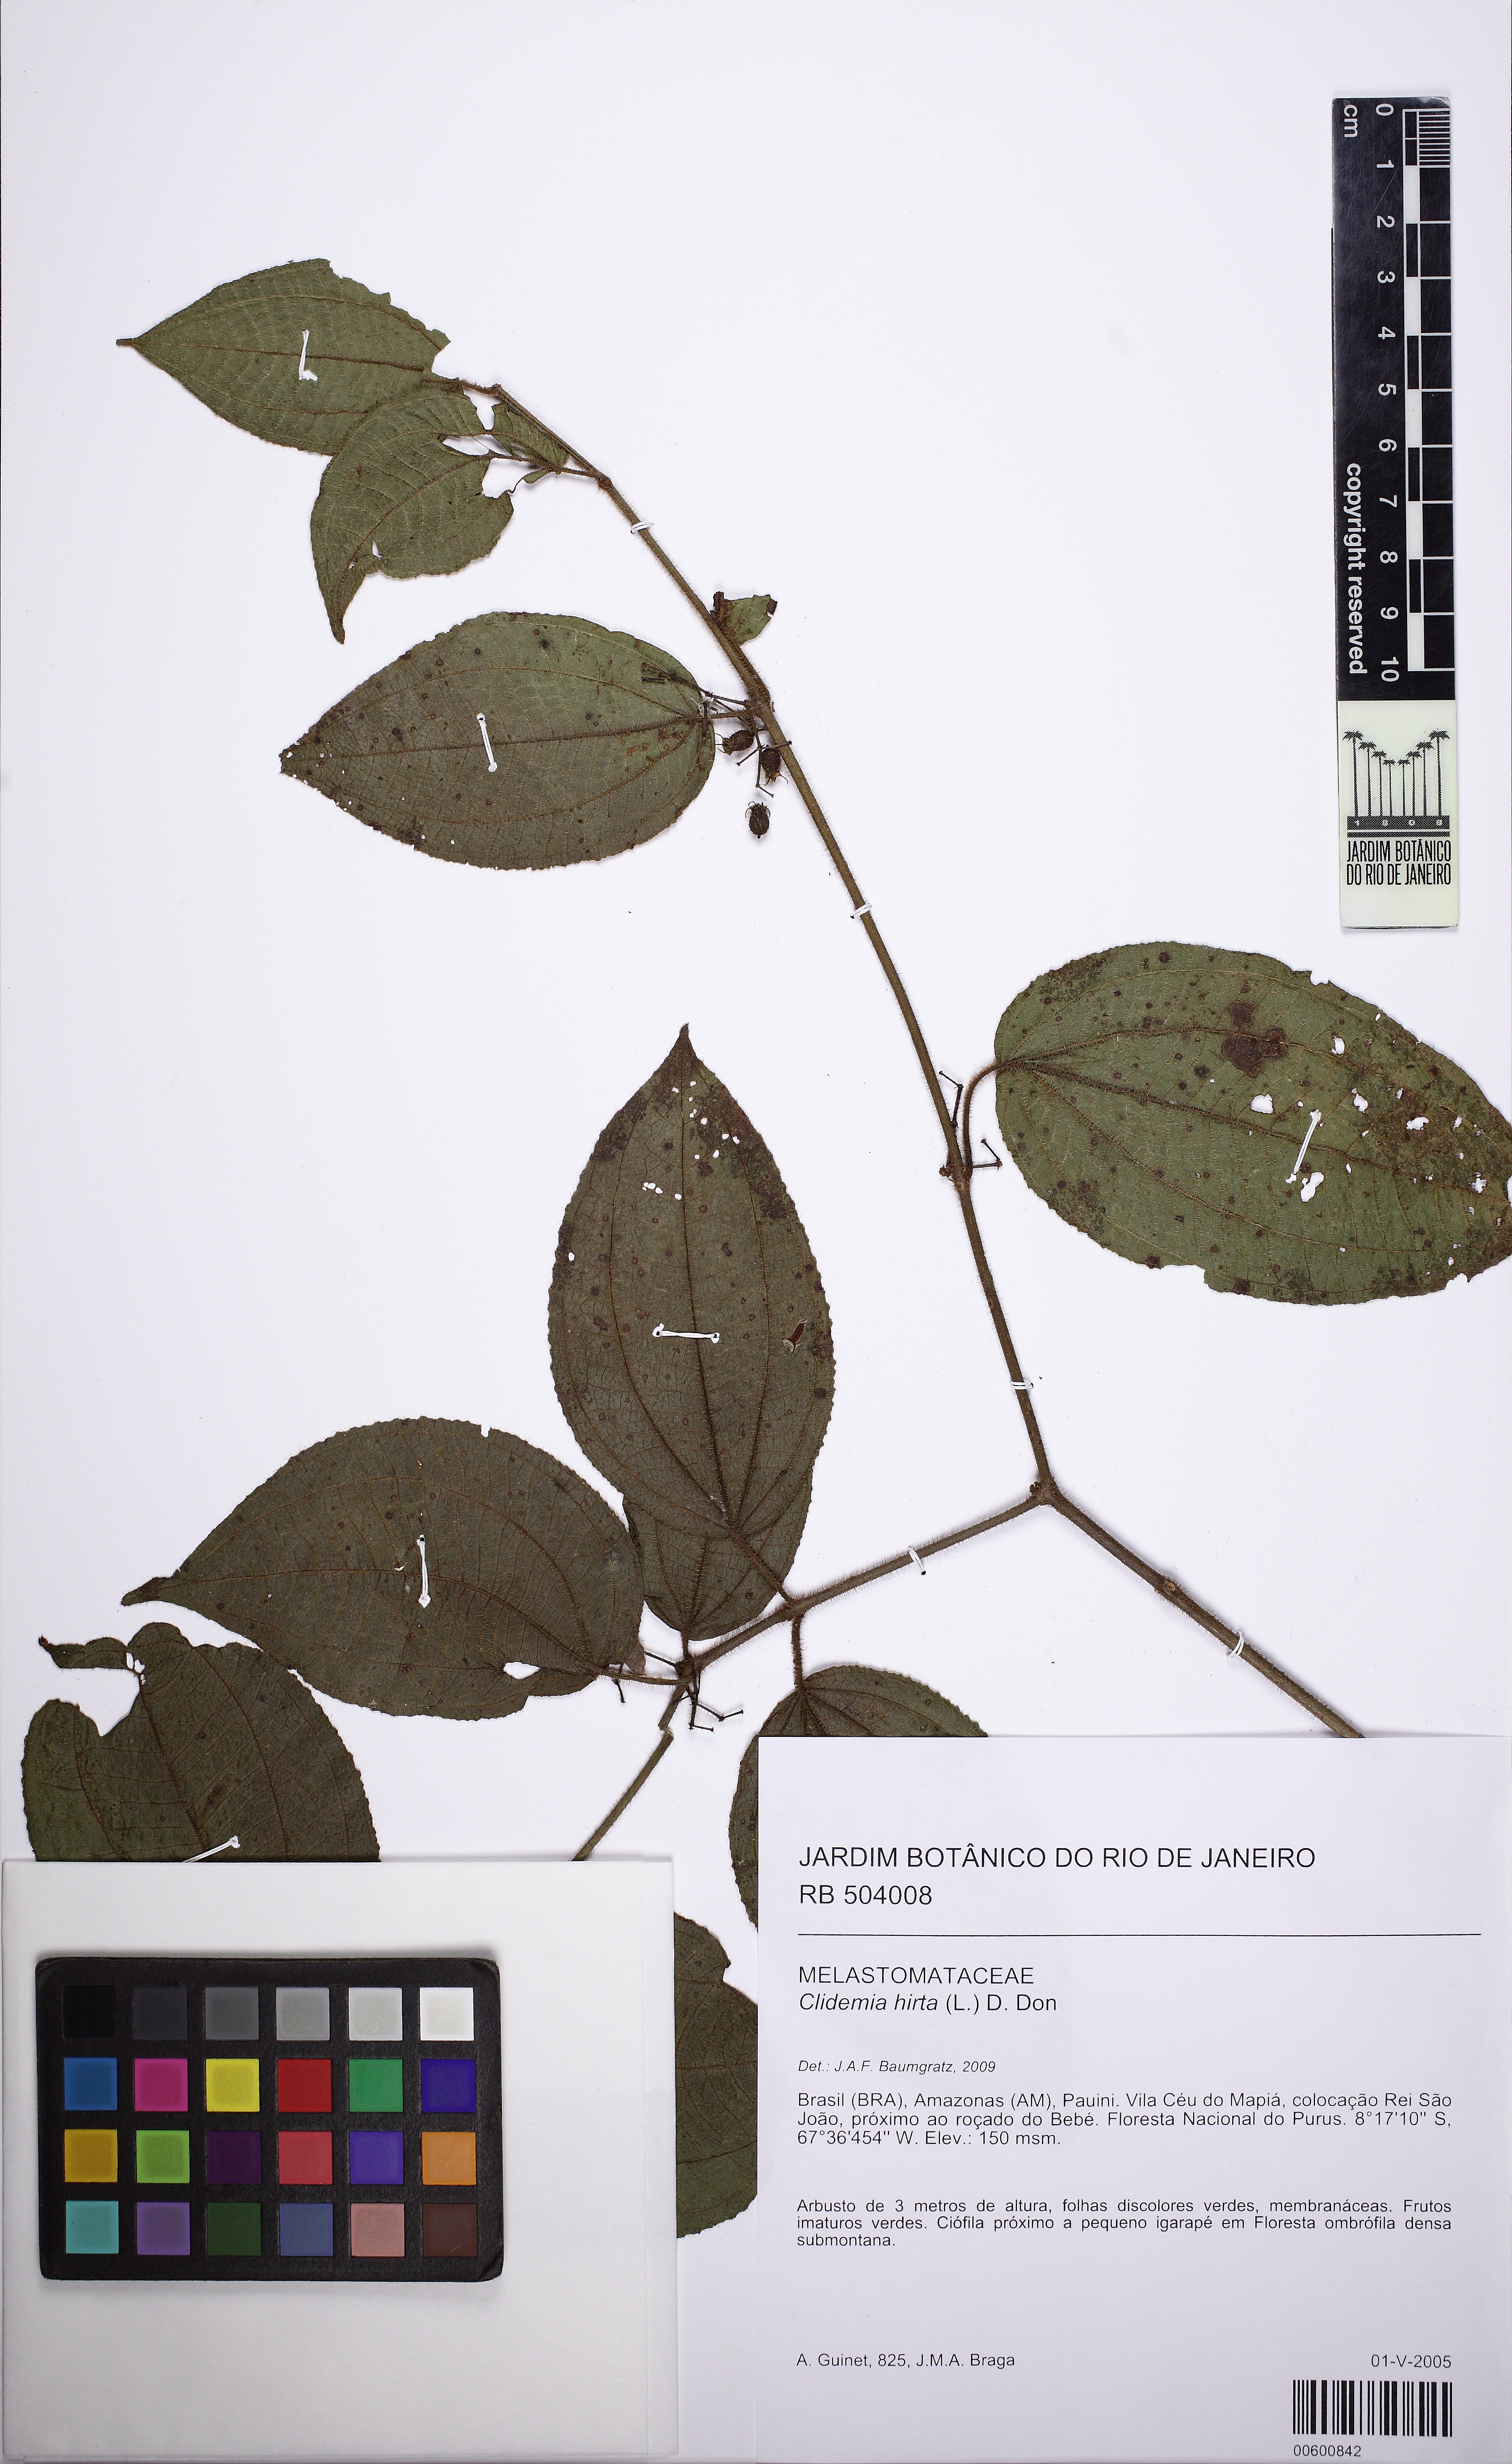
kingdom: Plantae
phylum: Tracheophyta
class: Magnoliopsida
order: Myrtales
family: Melastomataceae
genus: Miconia
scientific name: Miconia crenata
